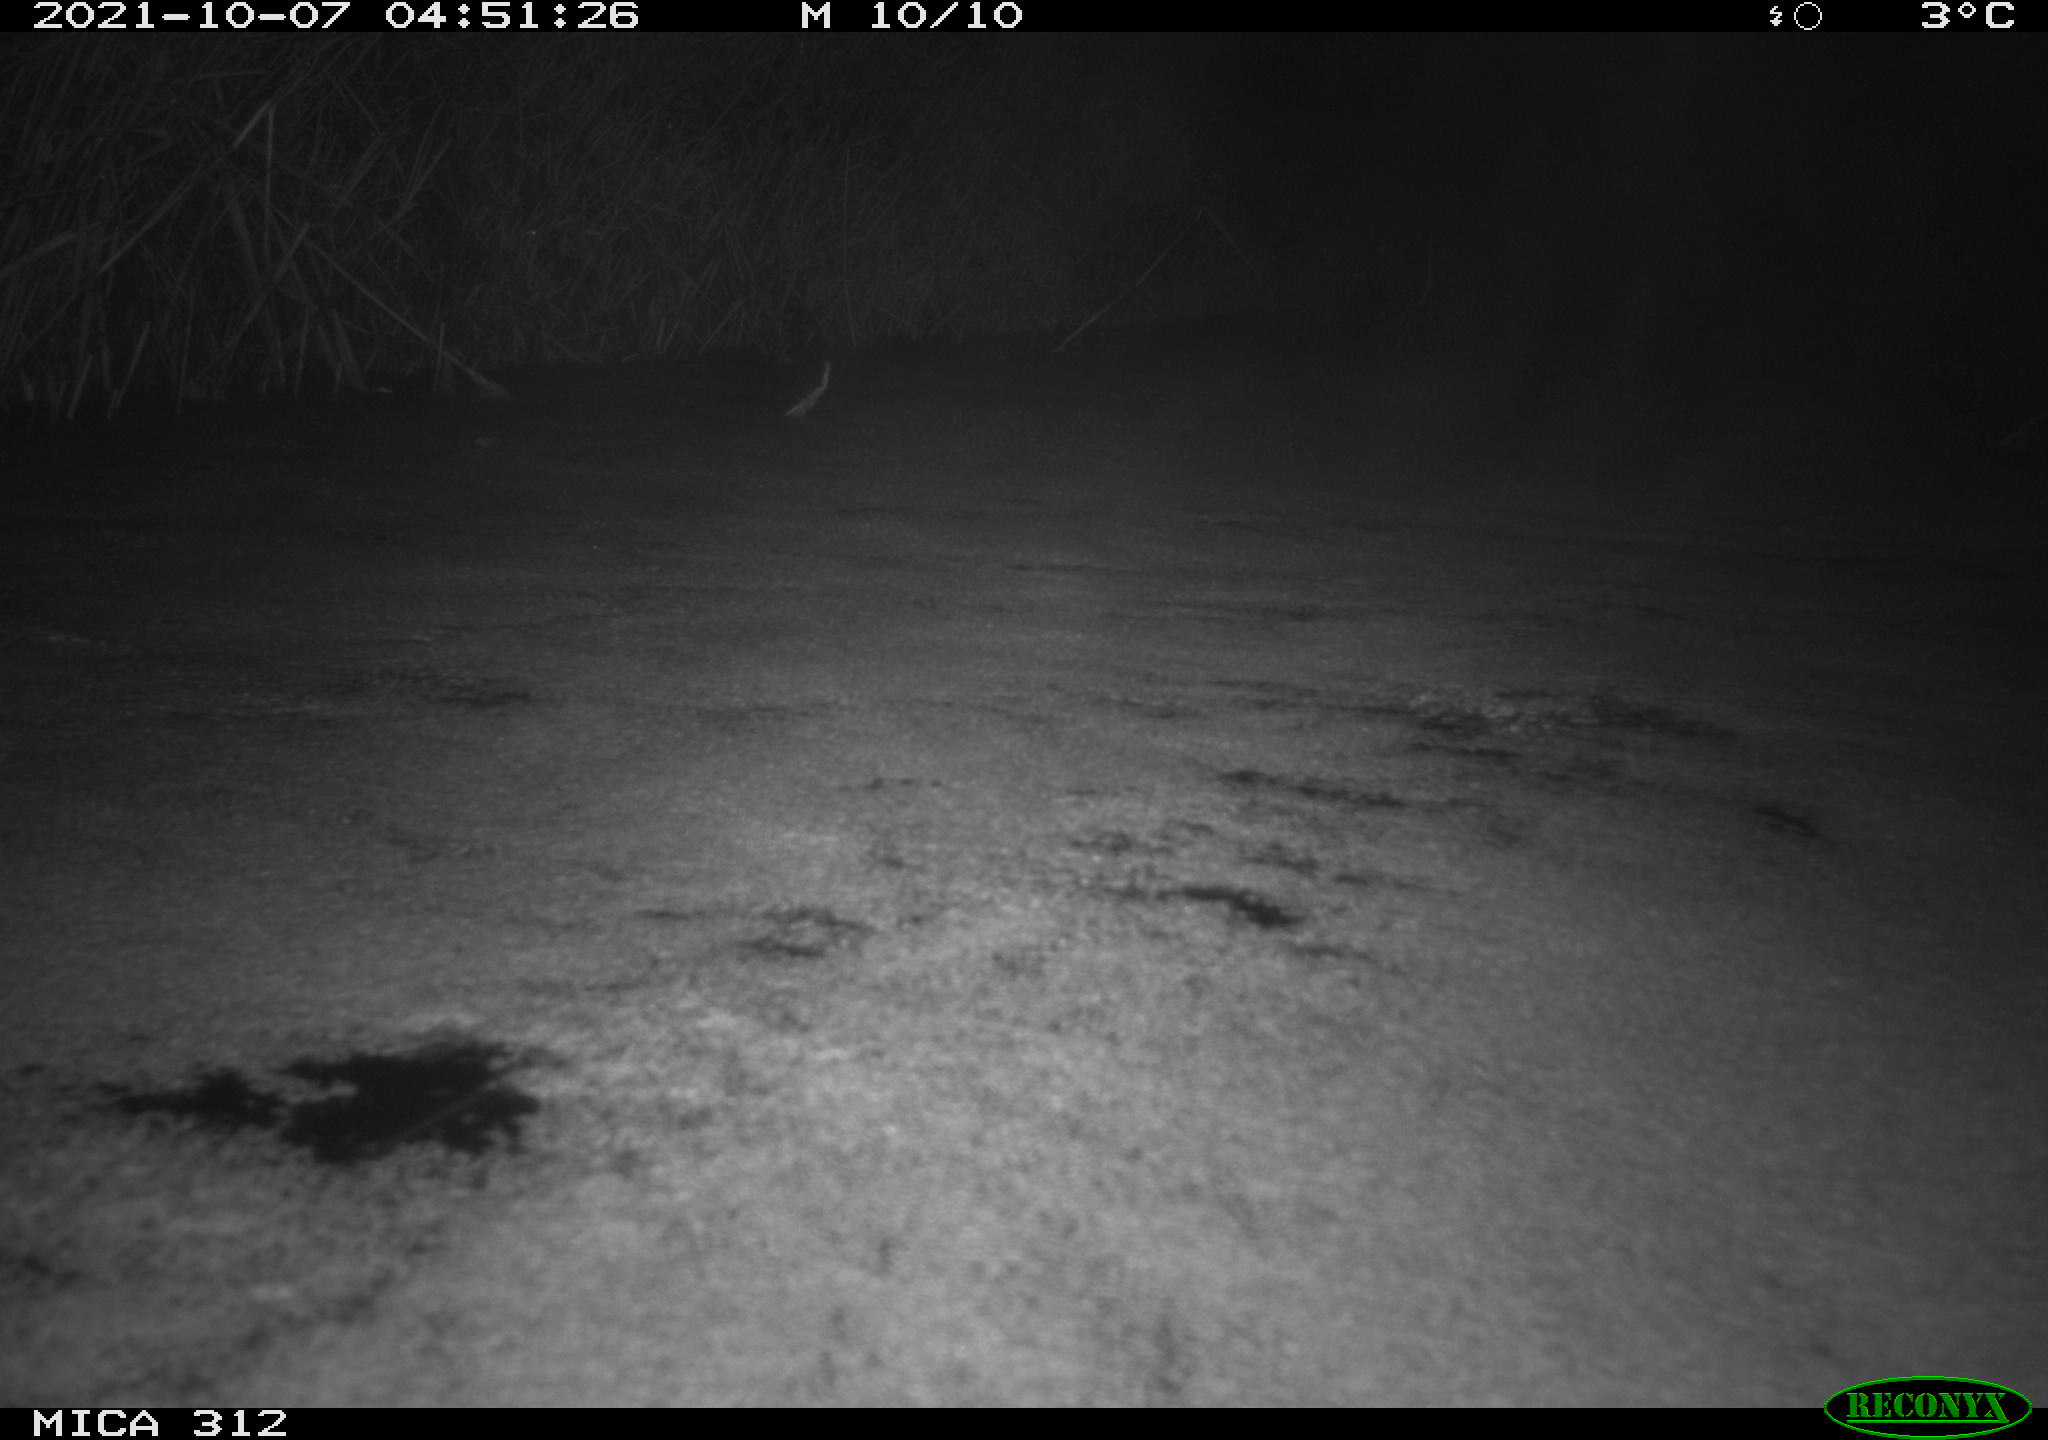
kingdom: Animalia
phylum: Chordata
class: Mammalia
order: Rodentia
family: Muridae
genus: Rattus
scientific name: Rattus norvegicus
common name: Brown rat
